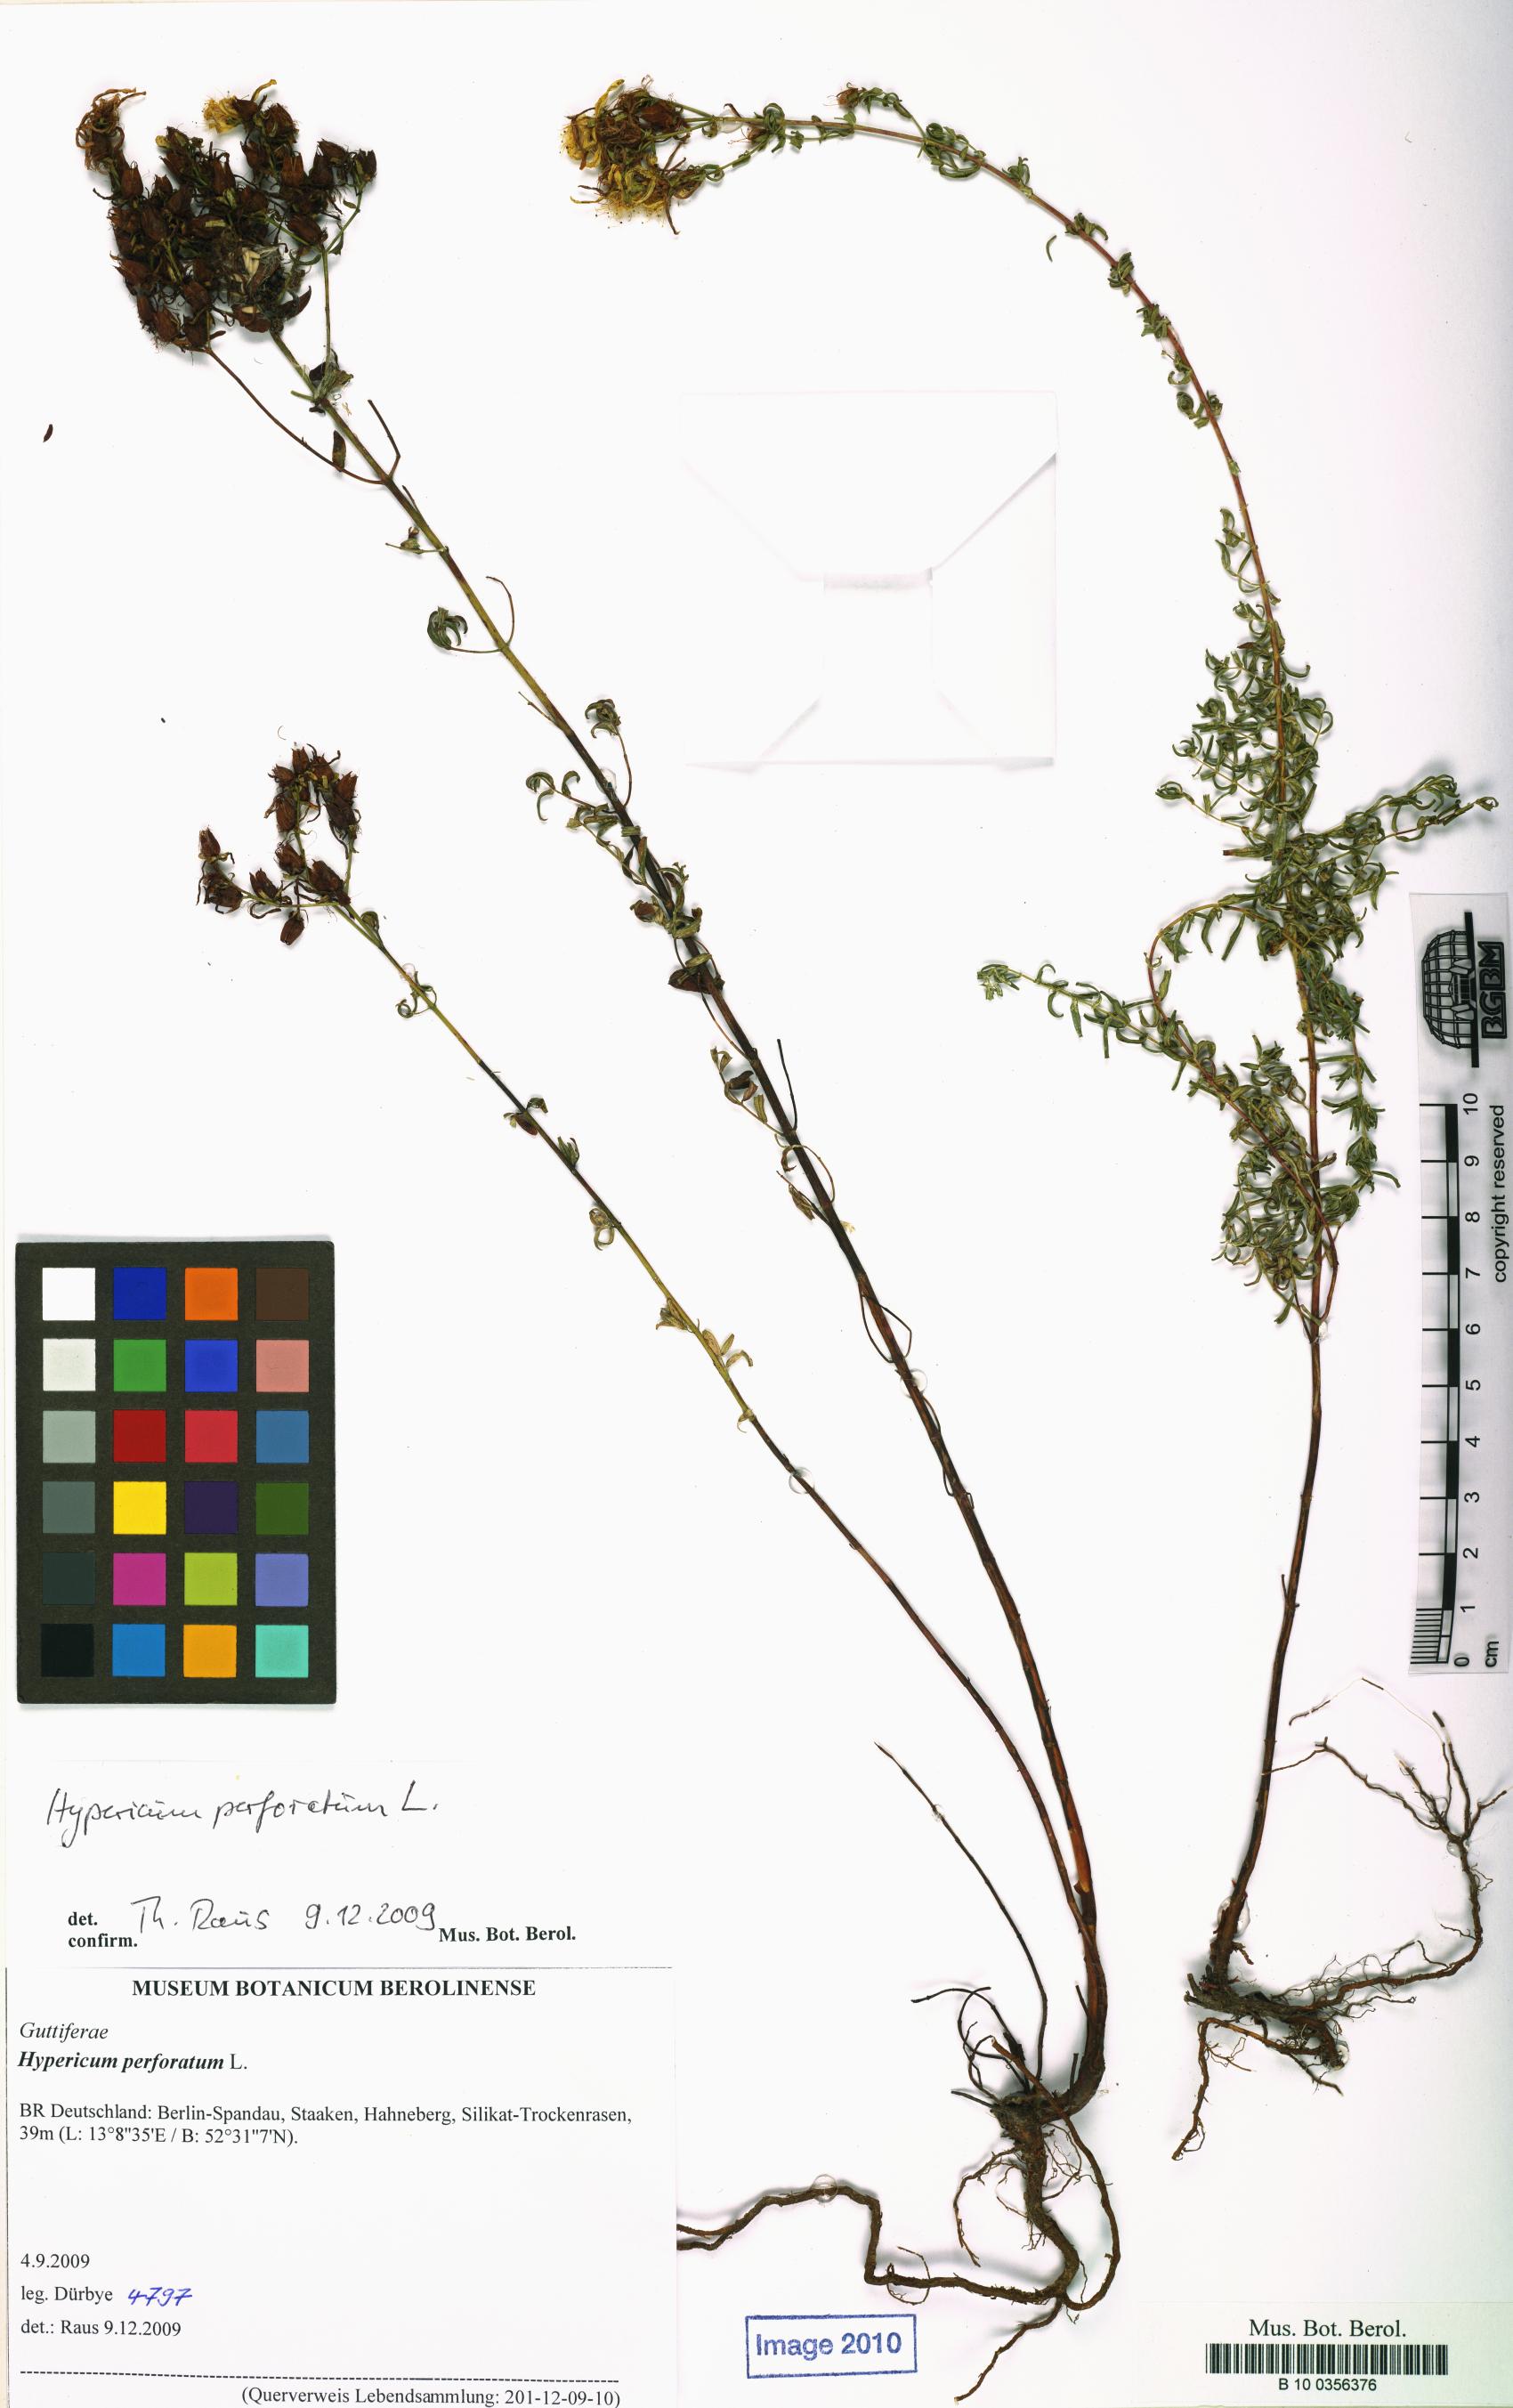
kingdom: Plantae
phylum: Tracheophyta
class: Magnoliopsida
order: Malpighiales
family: Hypericaceae
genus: Hypericum
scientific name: Hypericum perforatum
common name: Common st. johnswort
